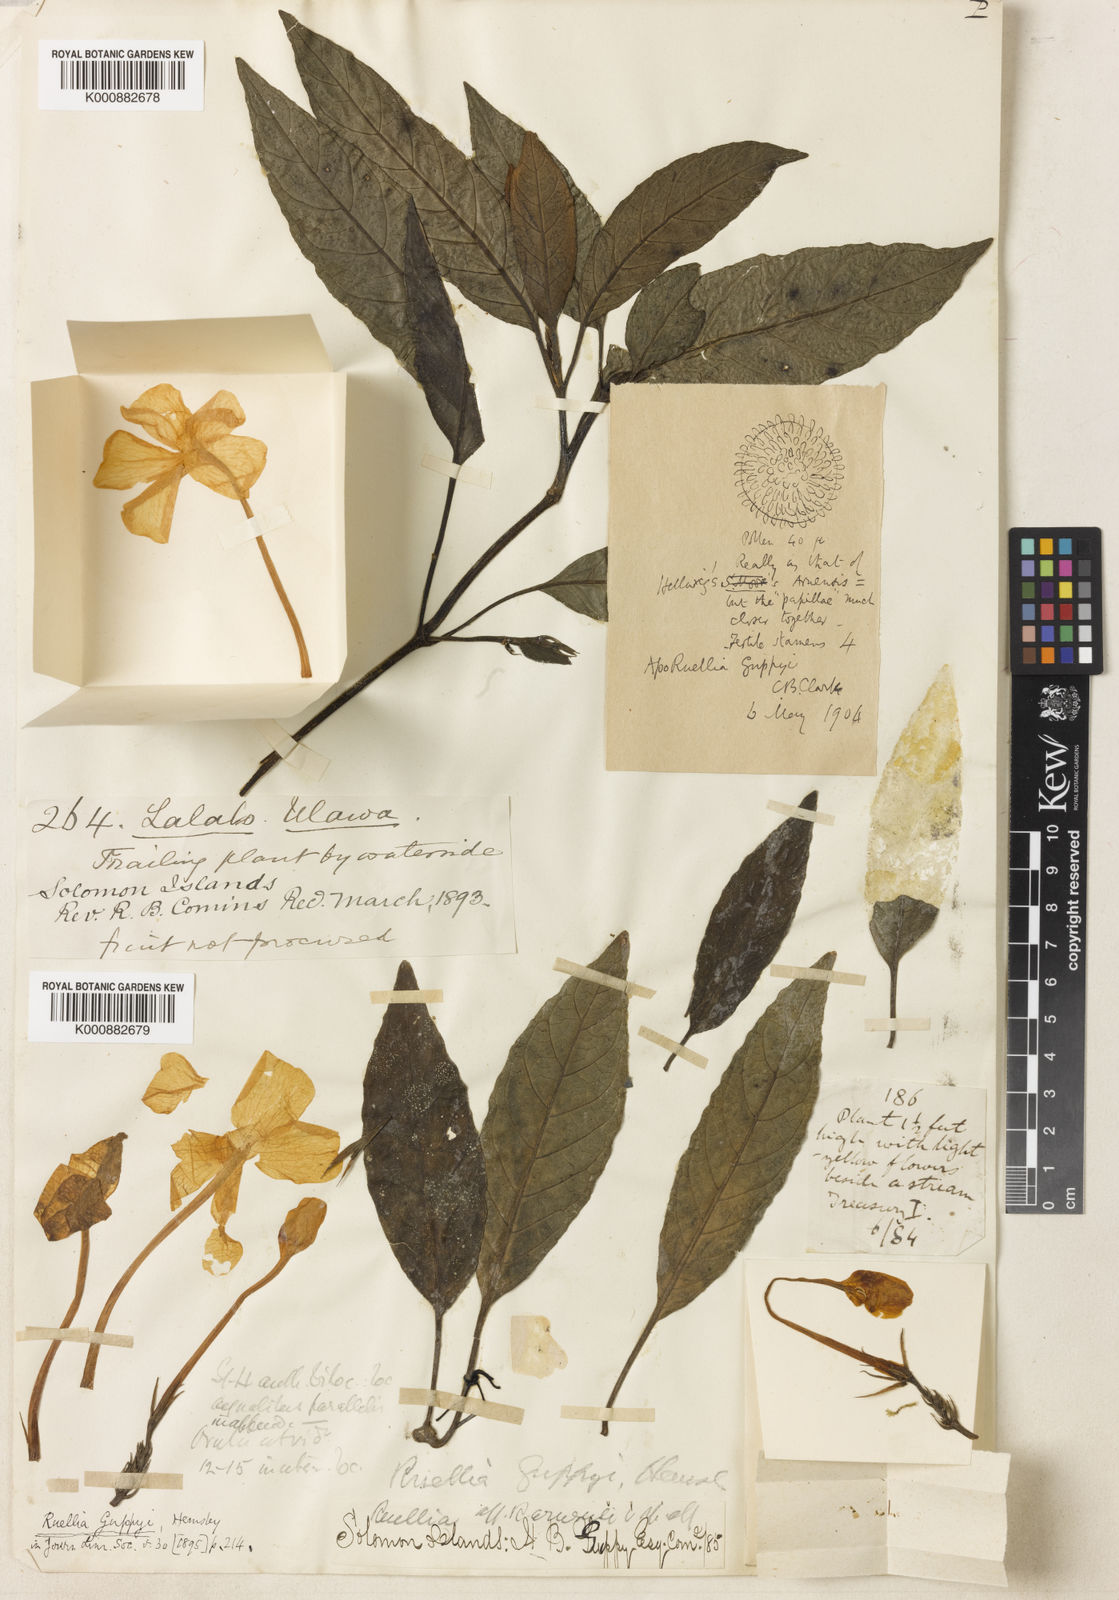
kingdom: Plantae
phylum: Tracheophyta
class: Magnoliopsida
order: Lamiales
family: Acanthaceae
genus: Leptosiphonium
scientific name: Leptosiphonium guppyi
